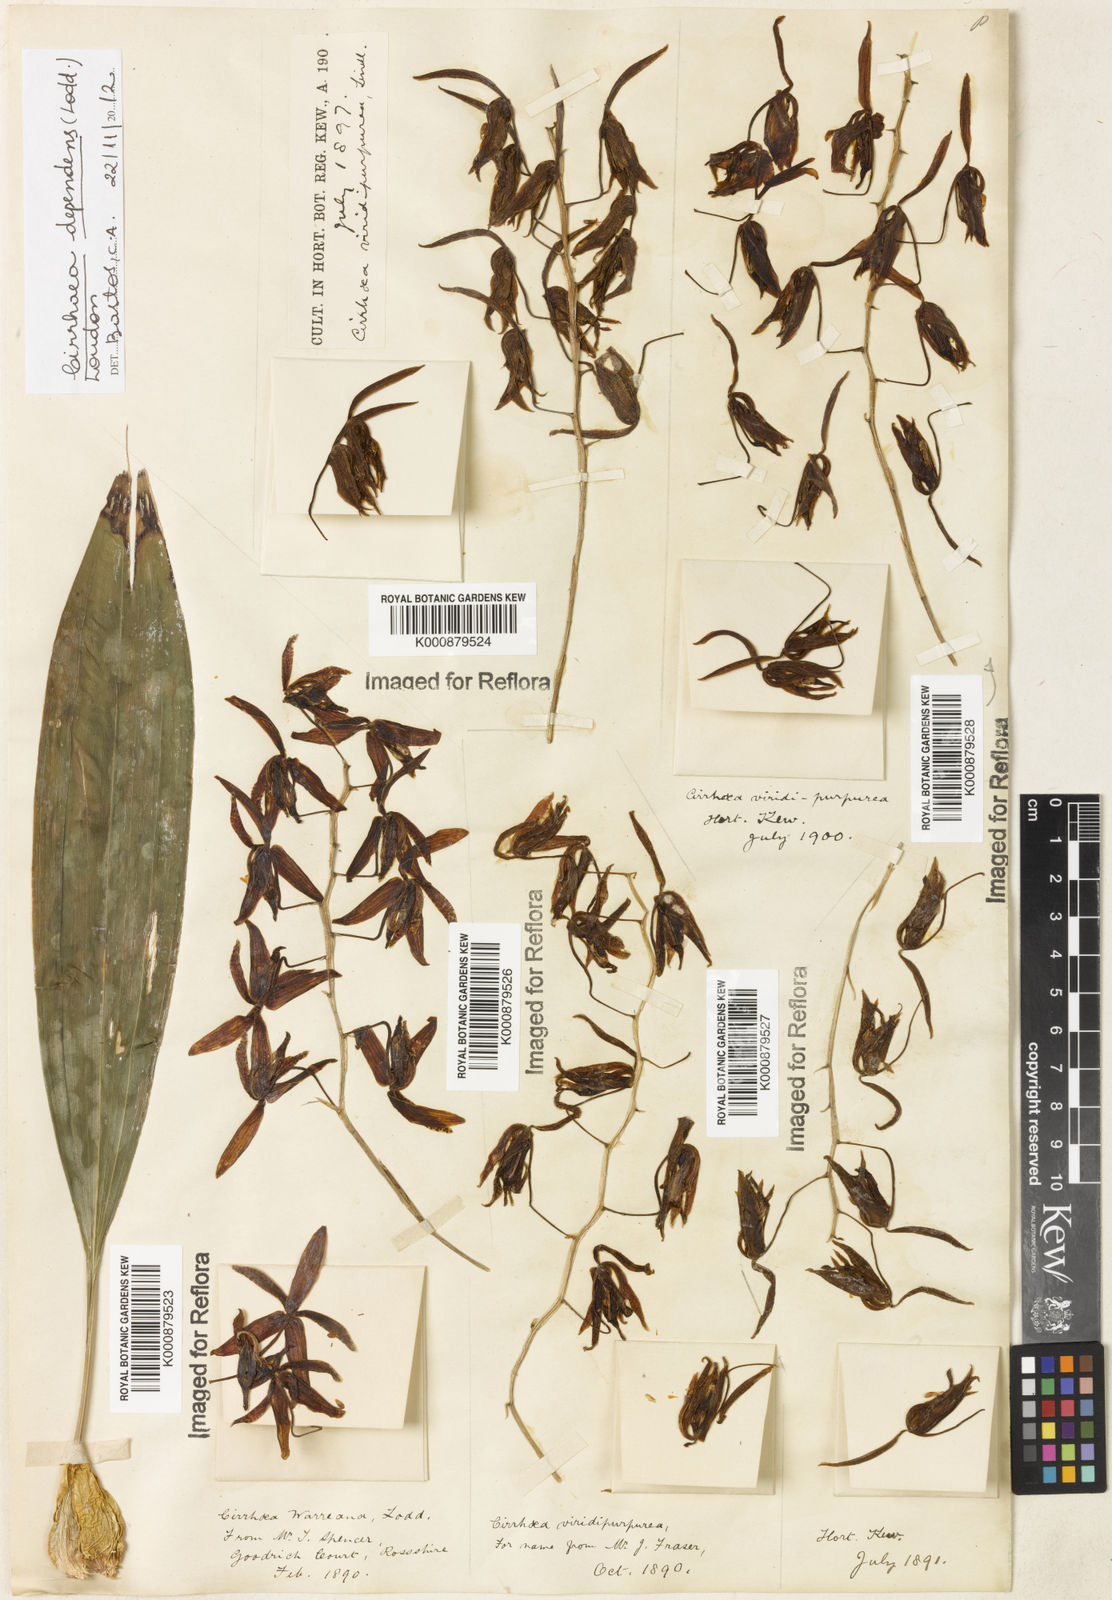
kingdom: Plantae
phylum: Tracheophyta
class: Liliopsida
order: Asparagales
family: Orchidaceae
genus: Cirrhaea
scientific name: Cirrhaea
